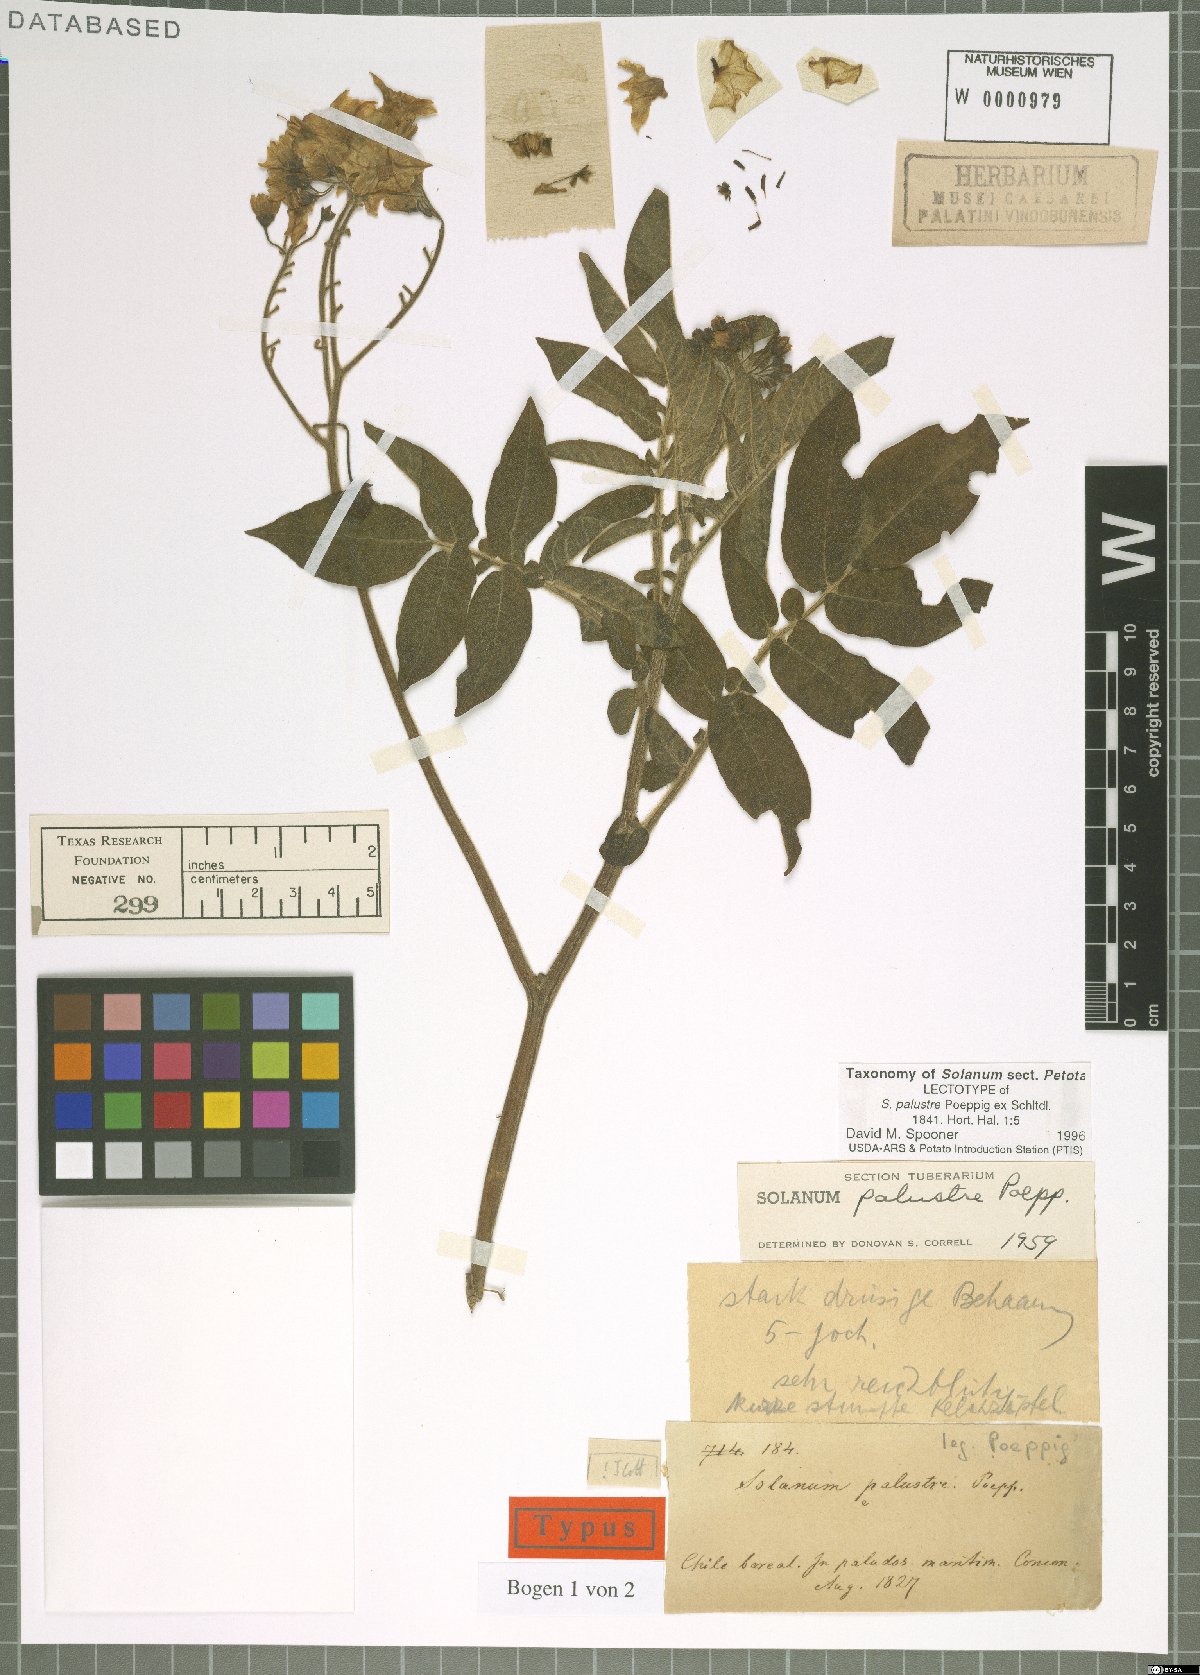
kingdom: Plantae
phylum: Tracheophyta
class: Magnoliopsida
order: Solanales
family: Solanaceae
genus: Solanum
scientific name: Solanum palustre
